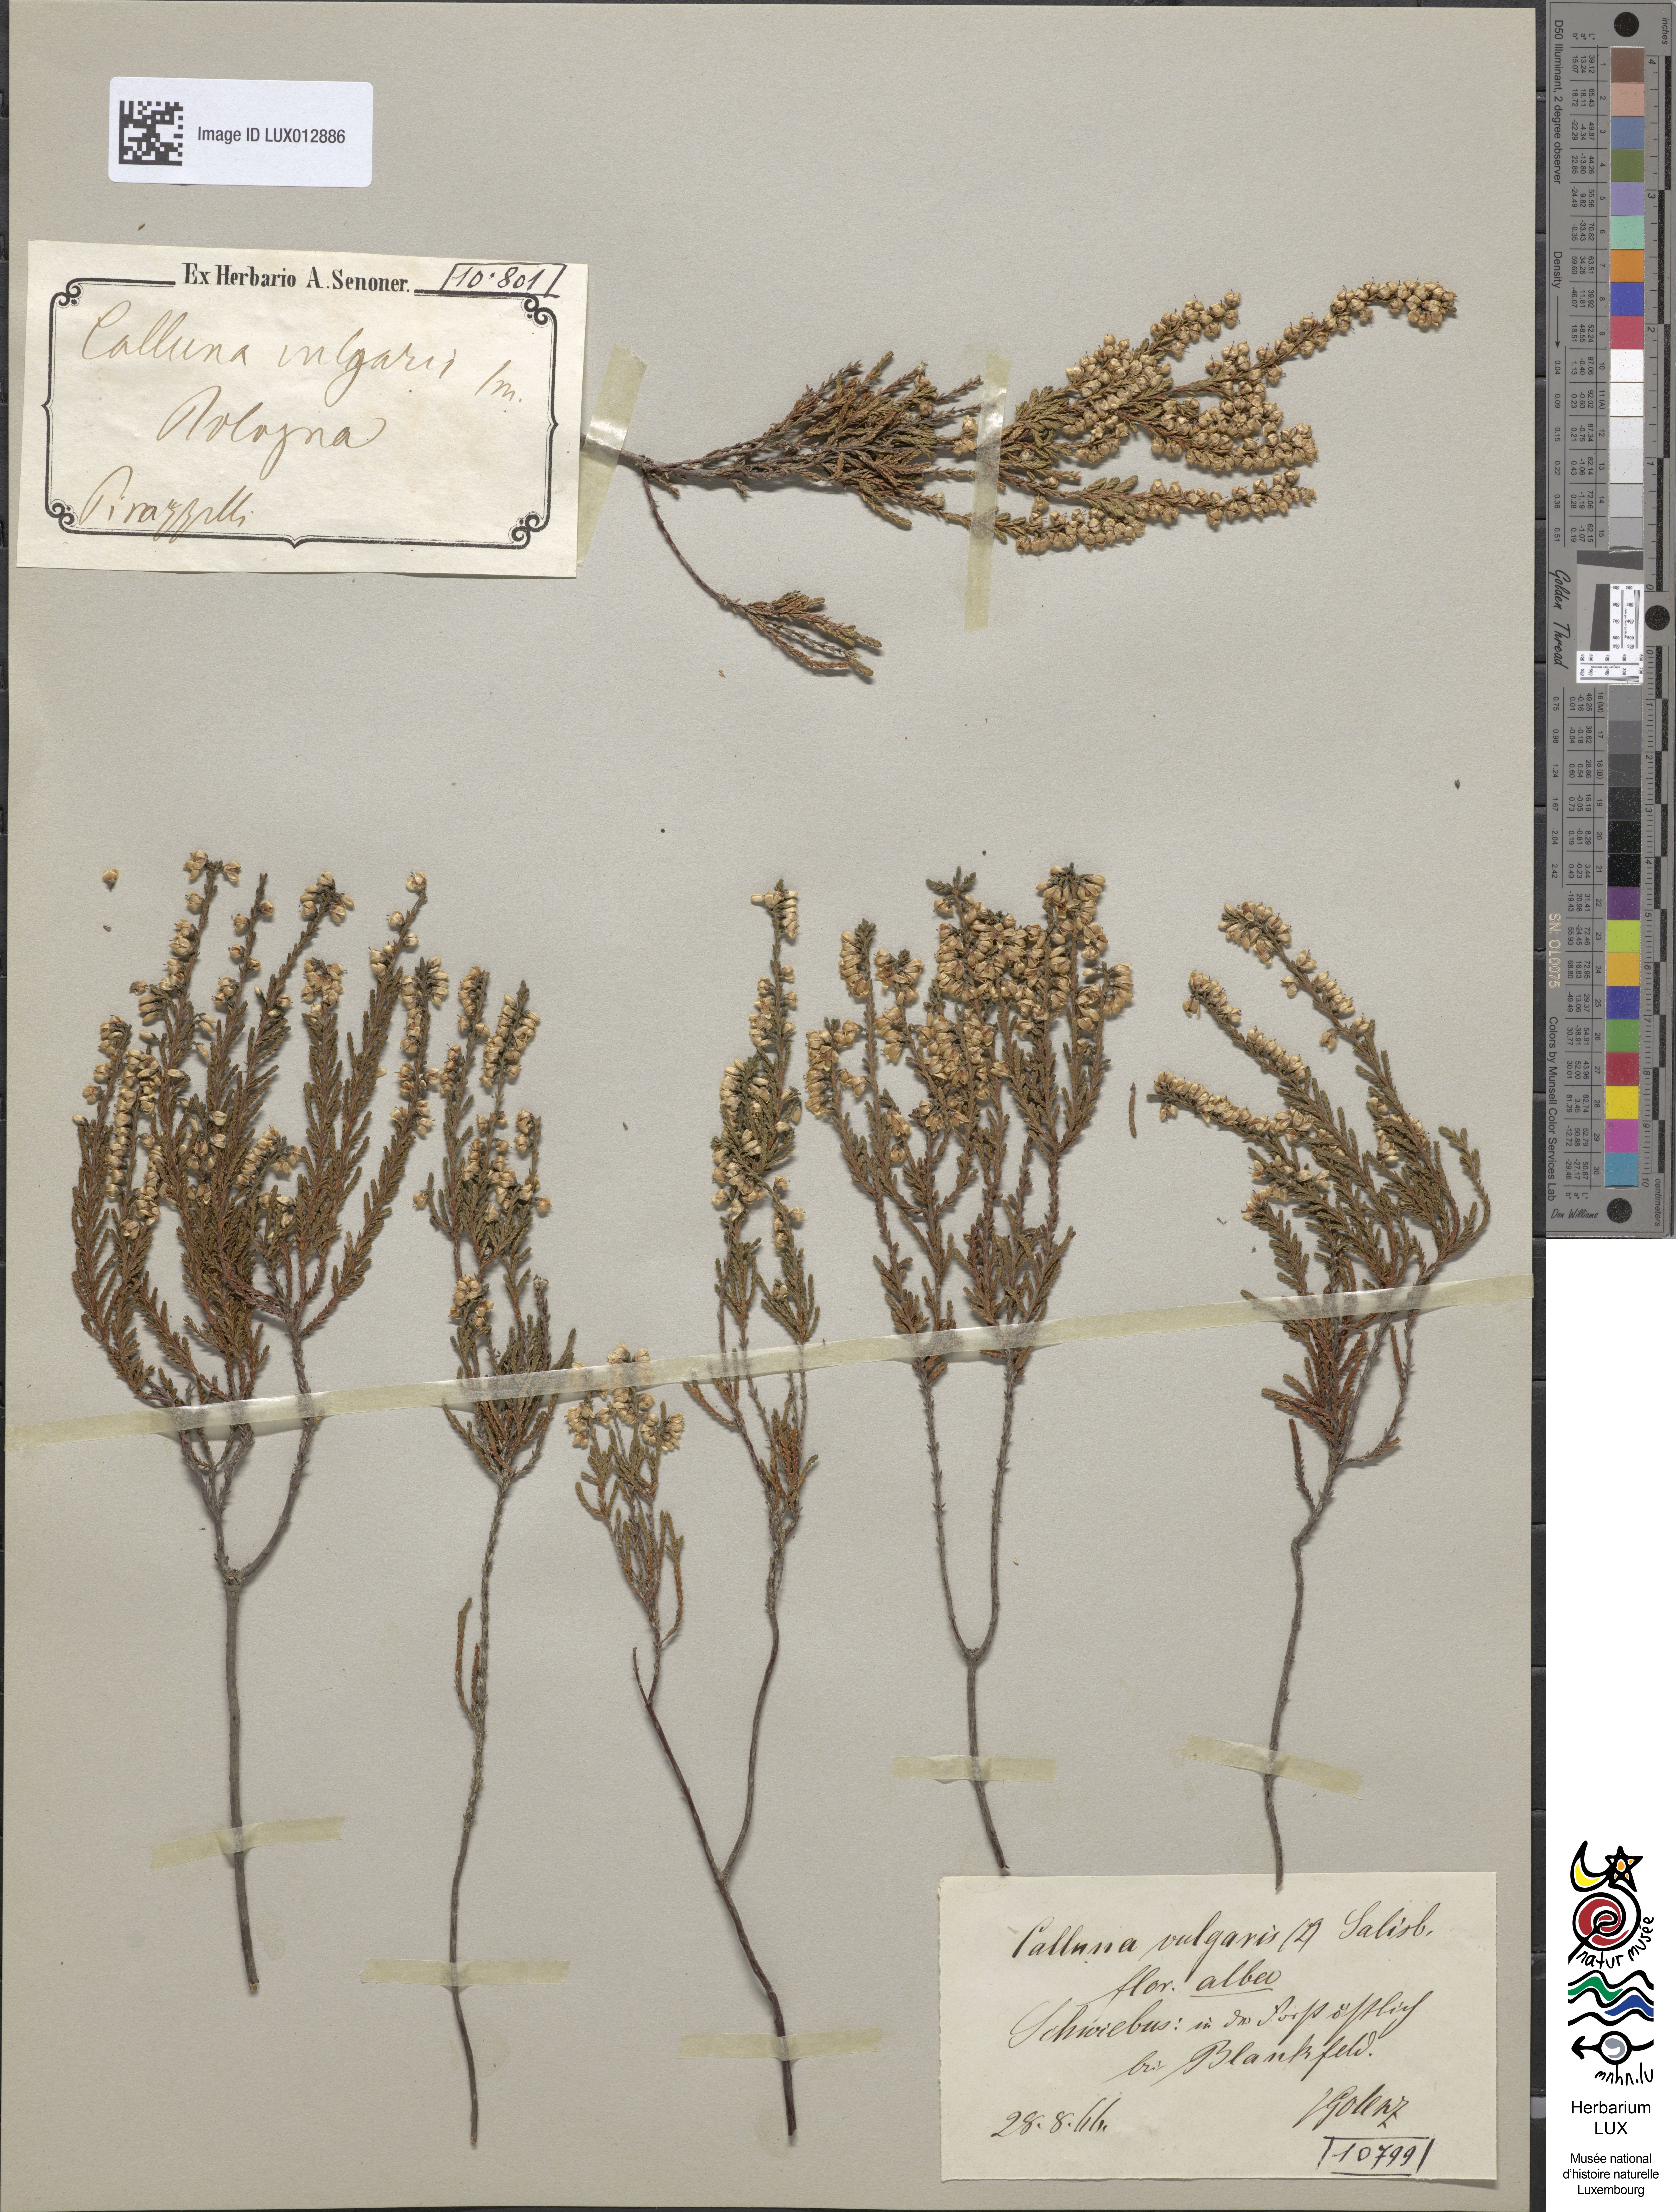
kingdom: Plantae
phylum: Tracheophyta
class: Magnoliopsida
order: Ericales
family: Ericaceae
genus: Calluna
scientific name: Calluna vulgaris
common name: Heather
